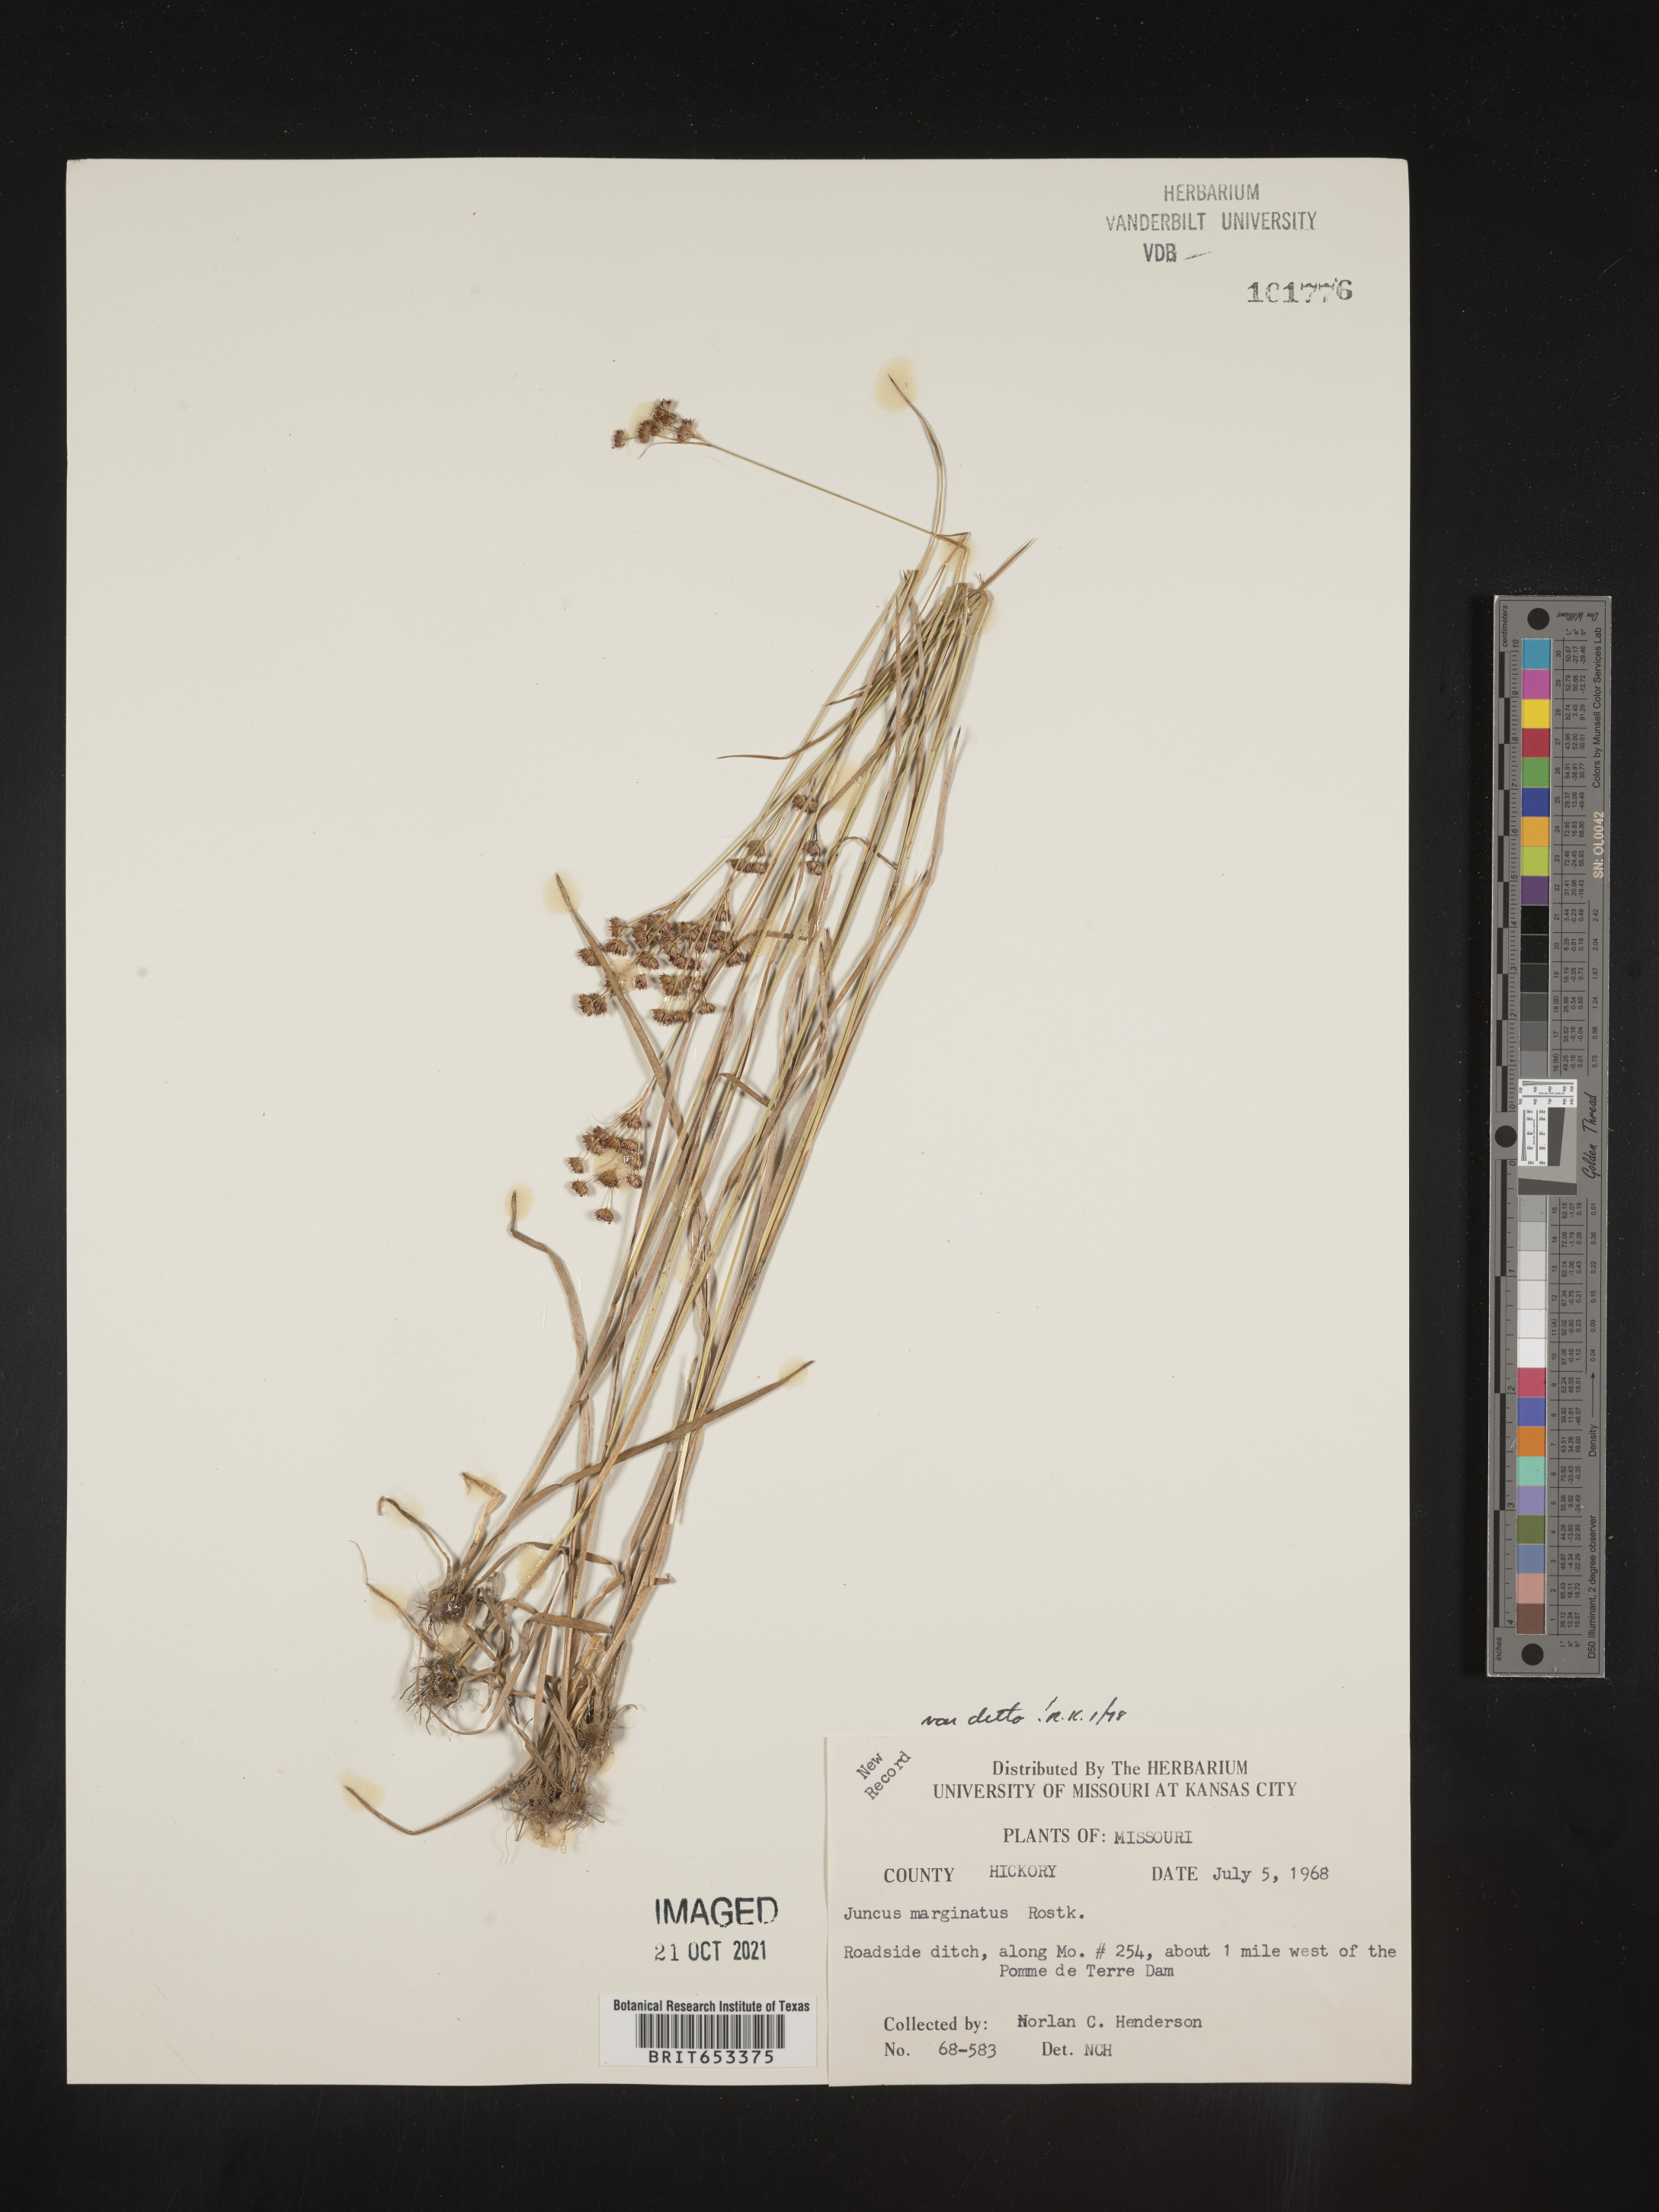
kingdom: Plantae
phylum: Tracheophyta
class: Liliopsida
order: Poales
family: Juncaceae
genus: Juncus
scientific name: Juncus marginatus
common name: Grass-leaf rush
